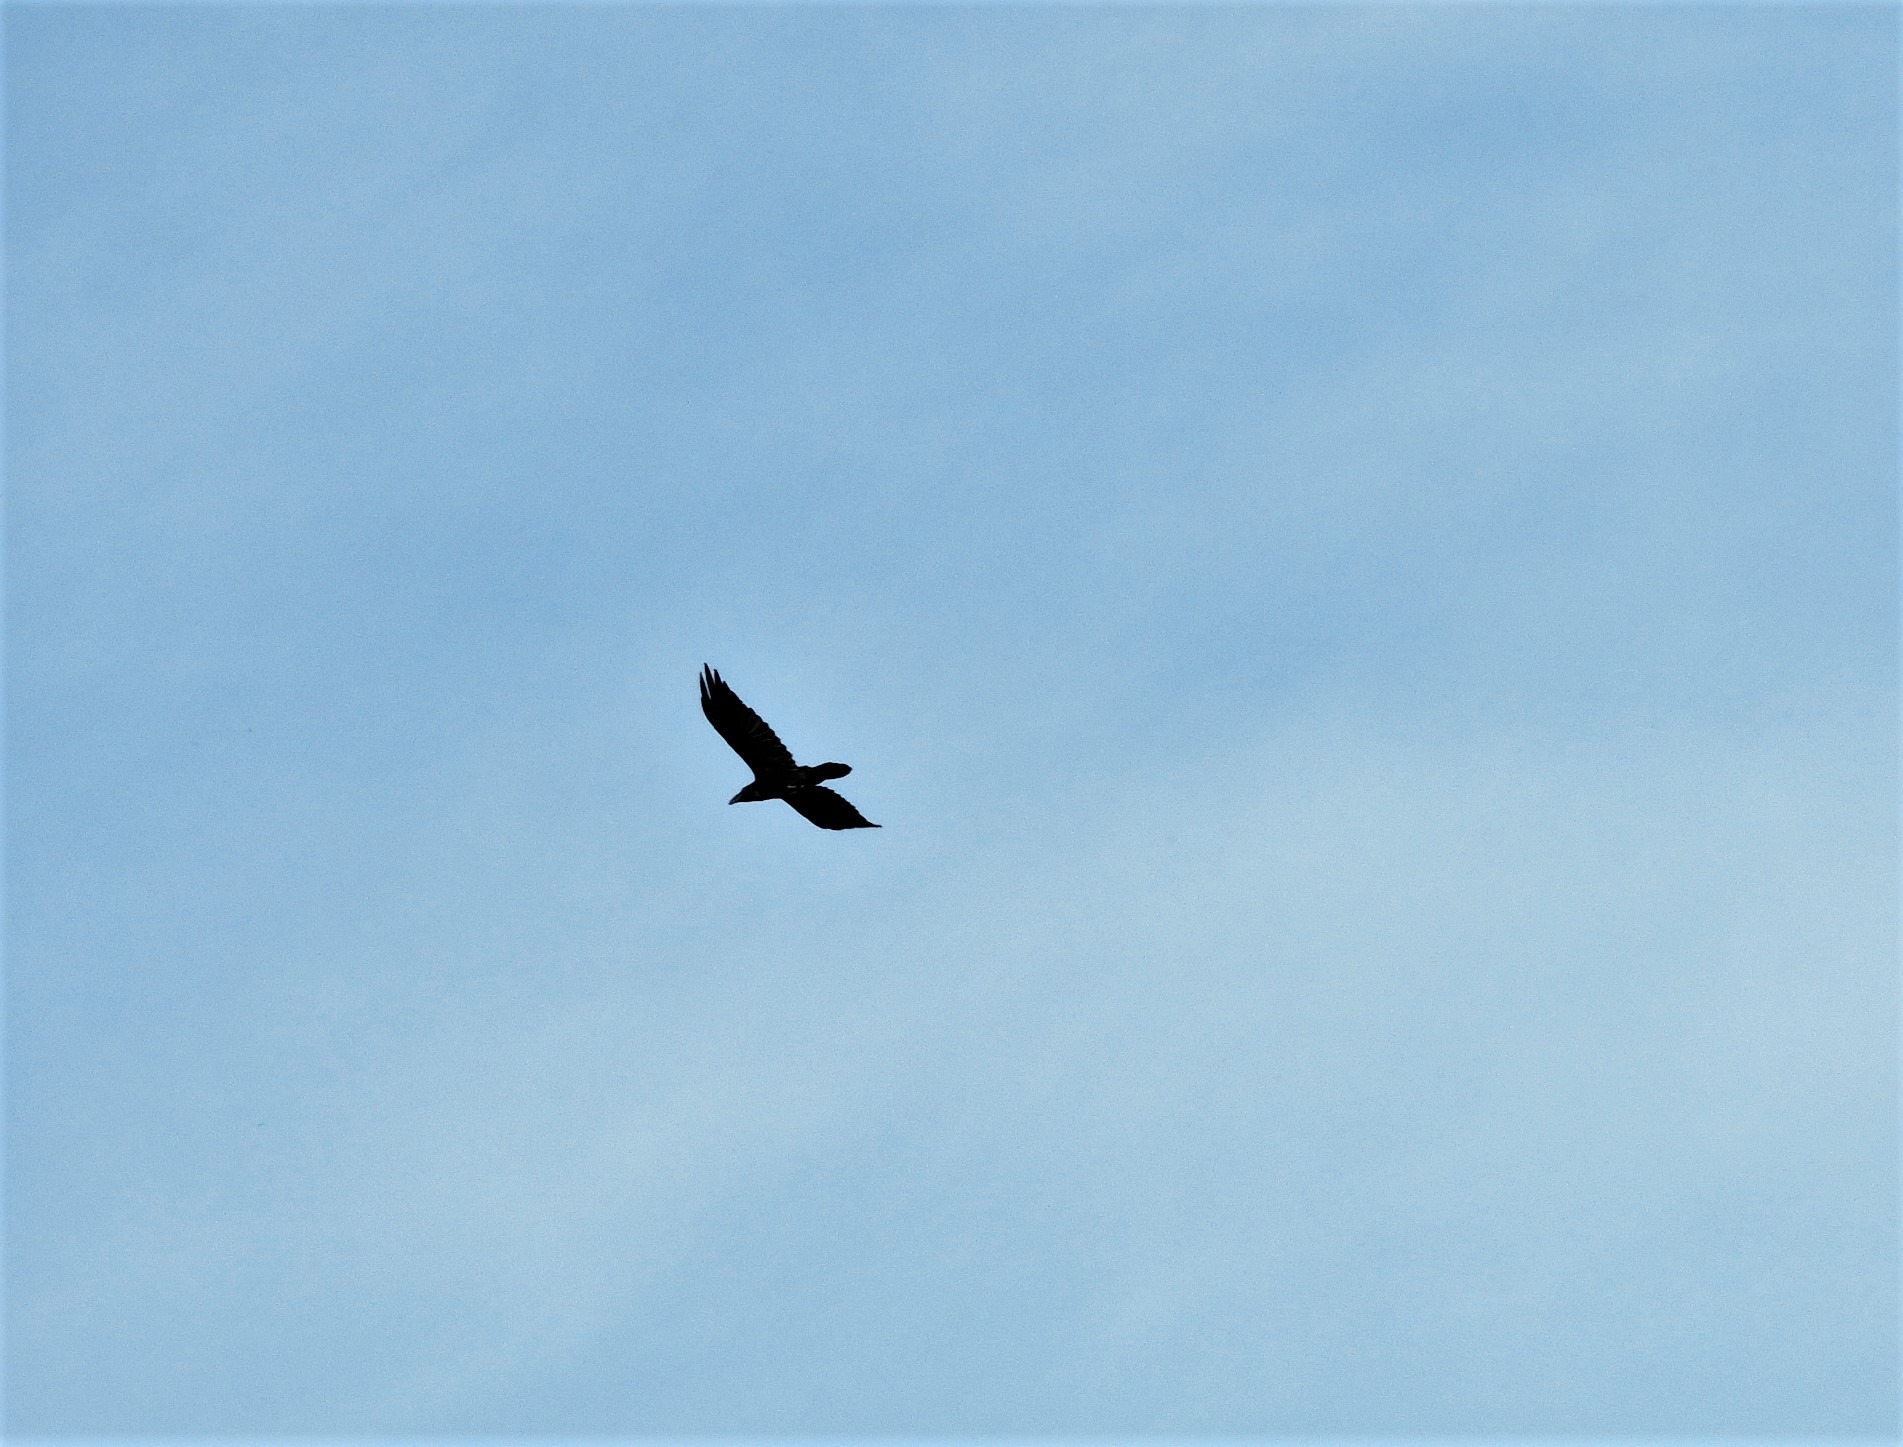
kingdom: Animalia
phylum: Chordata
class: Aves
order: Passeriformes
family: Corvidae
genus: Corvus
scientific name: Corvus corax
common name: Ravn
